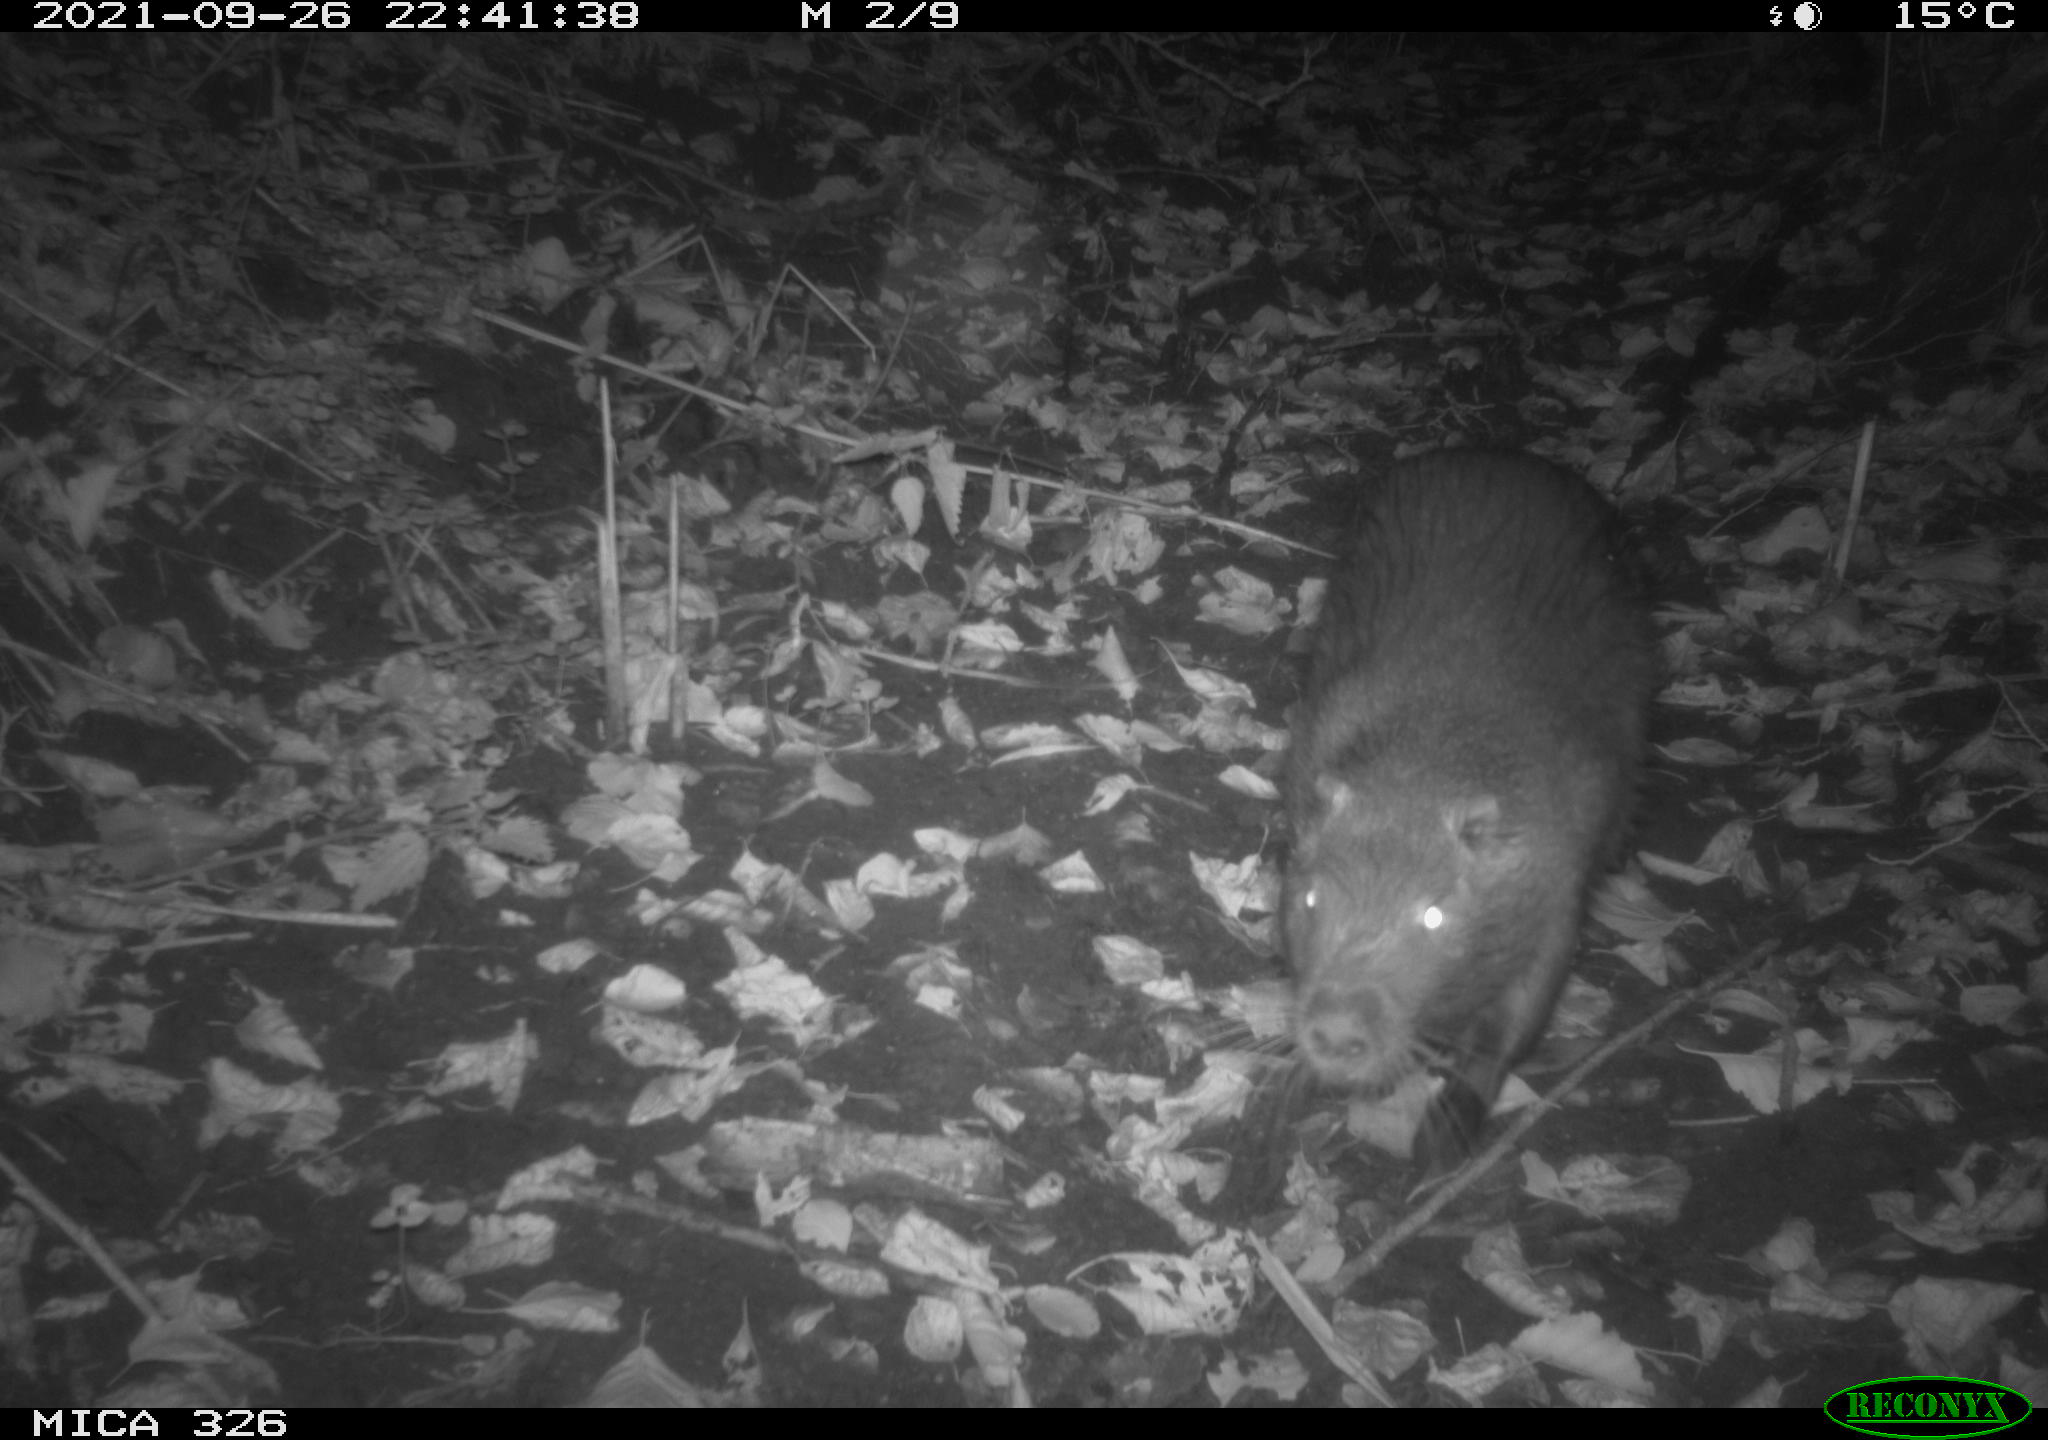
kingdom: Animalia
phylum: Chordata
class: Mammalia
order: Rodentia
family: Myocastoridae
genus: Myocastor
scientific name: Myocastor coypus
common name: Coypu
